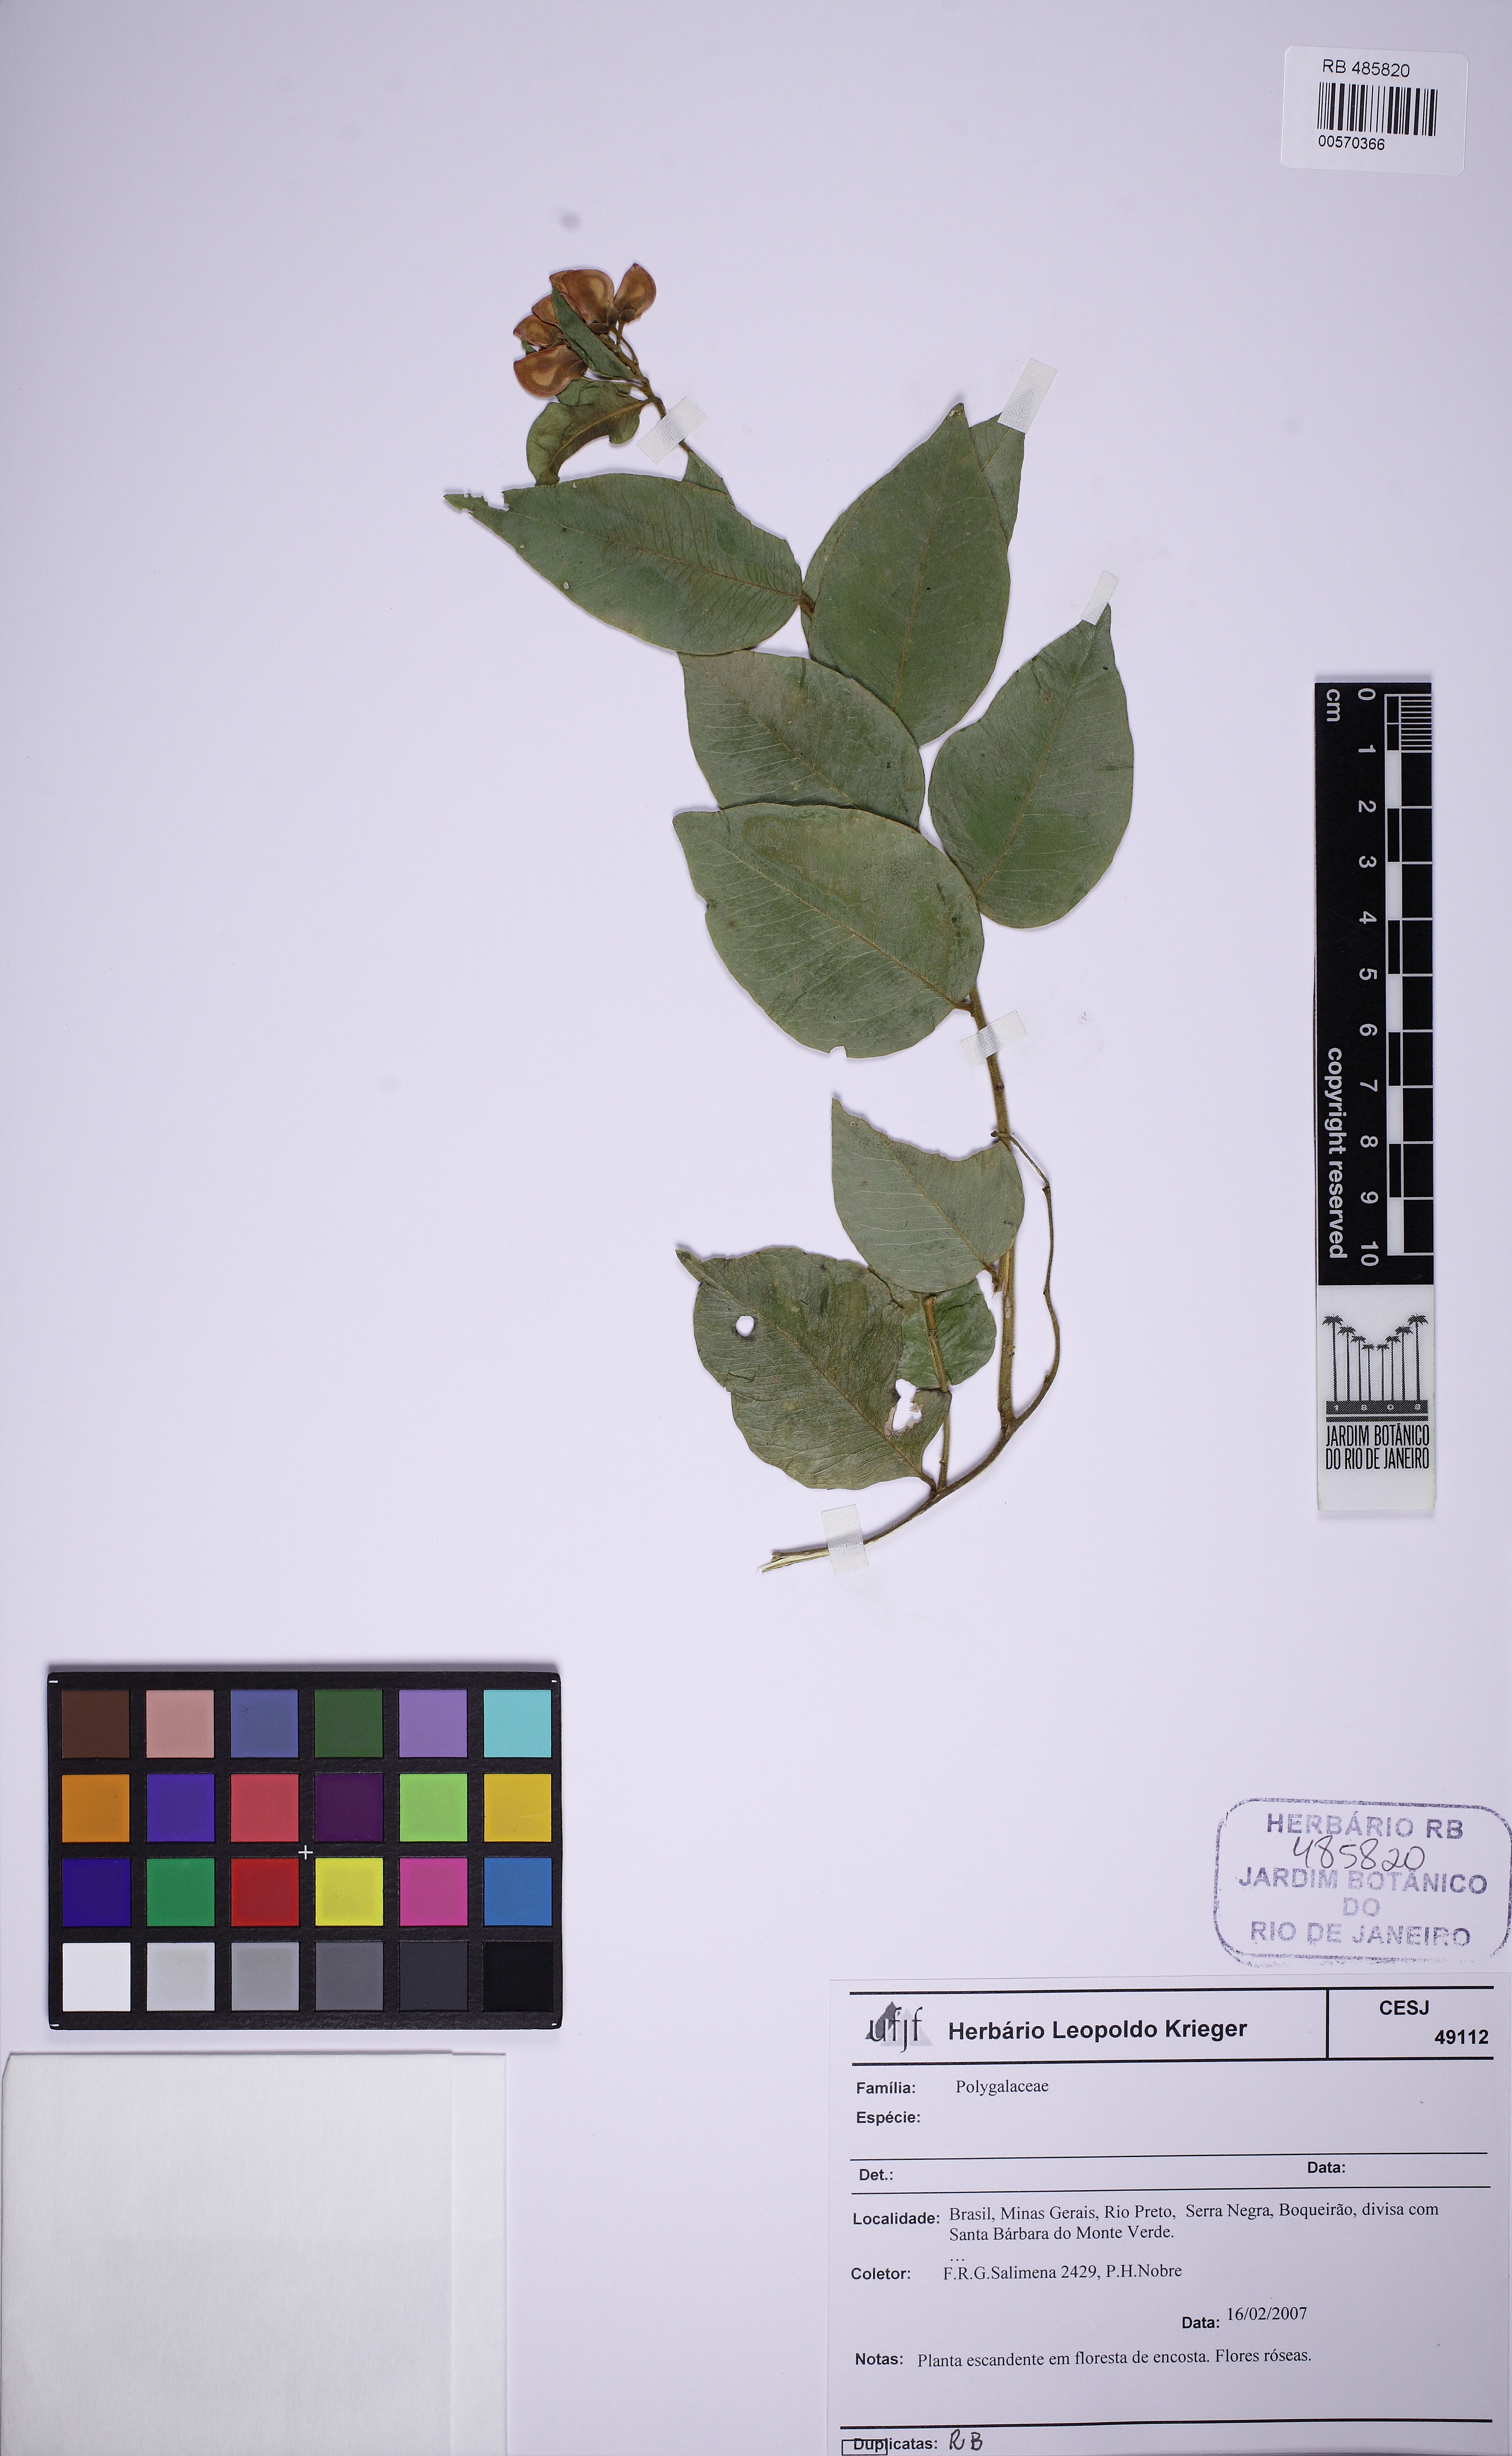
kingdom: Plantae
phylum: Tracheophyta
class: Magnoliopsida
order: Fabales
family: Polygalaceae
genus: Securidaca
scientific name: Securidaca
